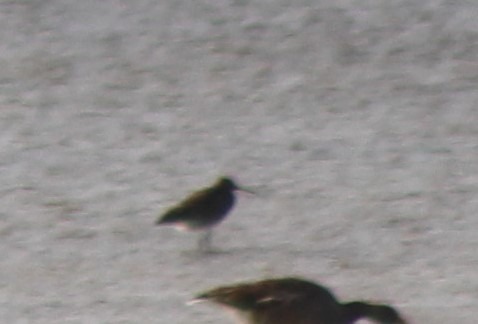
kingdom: Animalia
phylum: Chordata
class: Aves
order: Charadriiformes
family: Scolopacidae
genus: Tringa
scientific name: Tringa totanus
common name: Rødben
